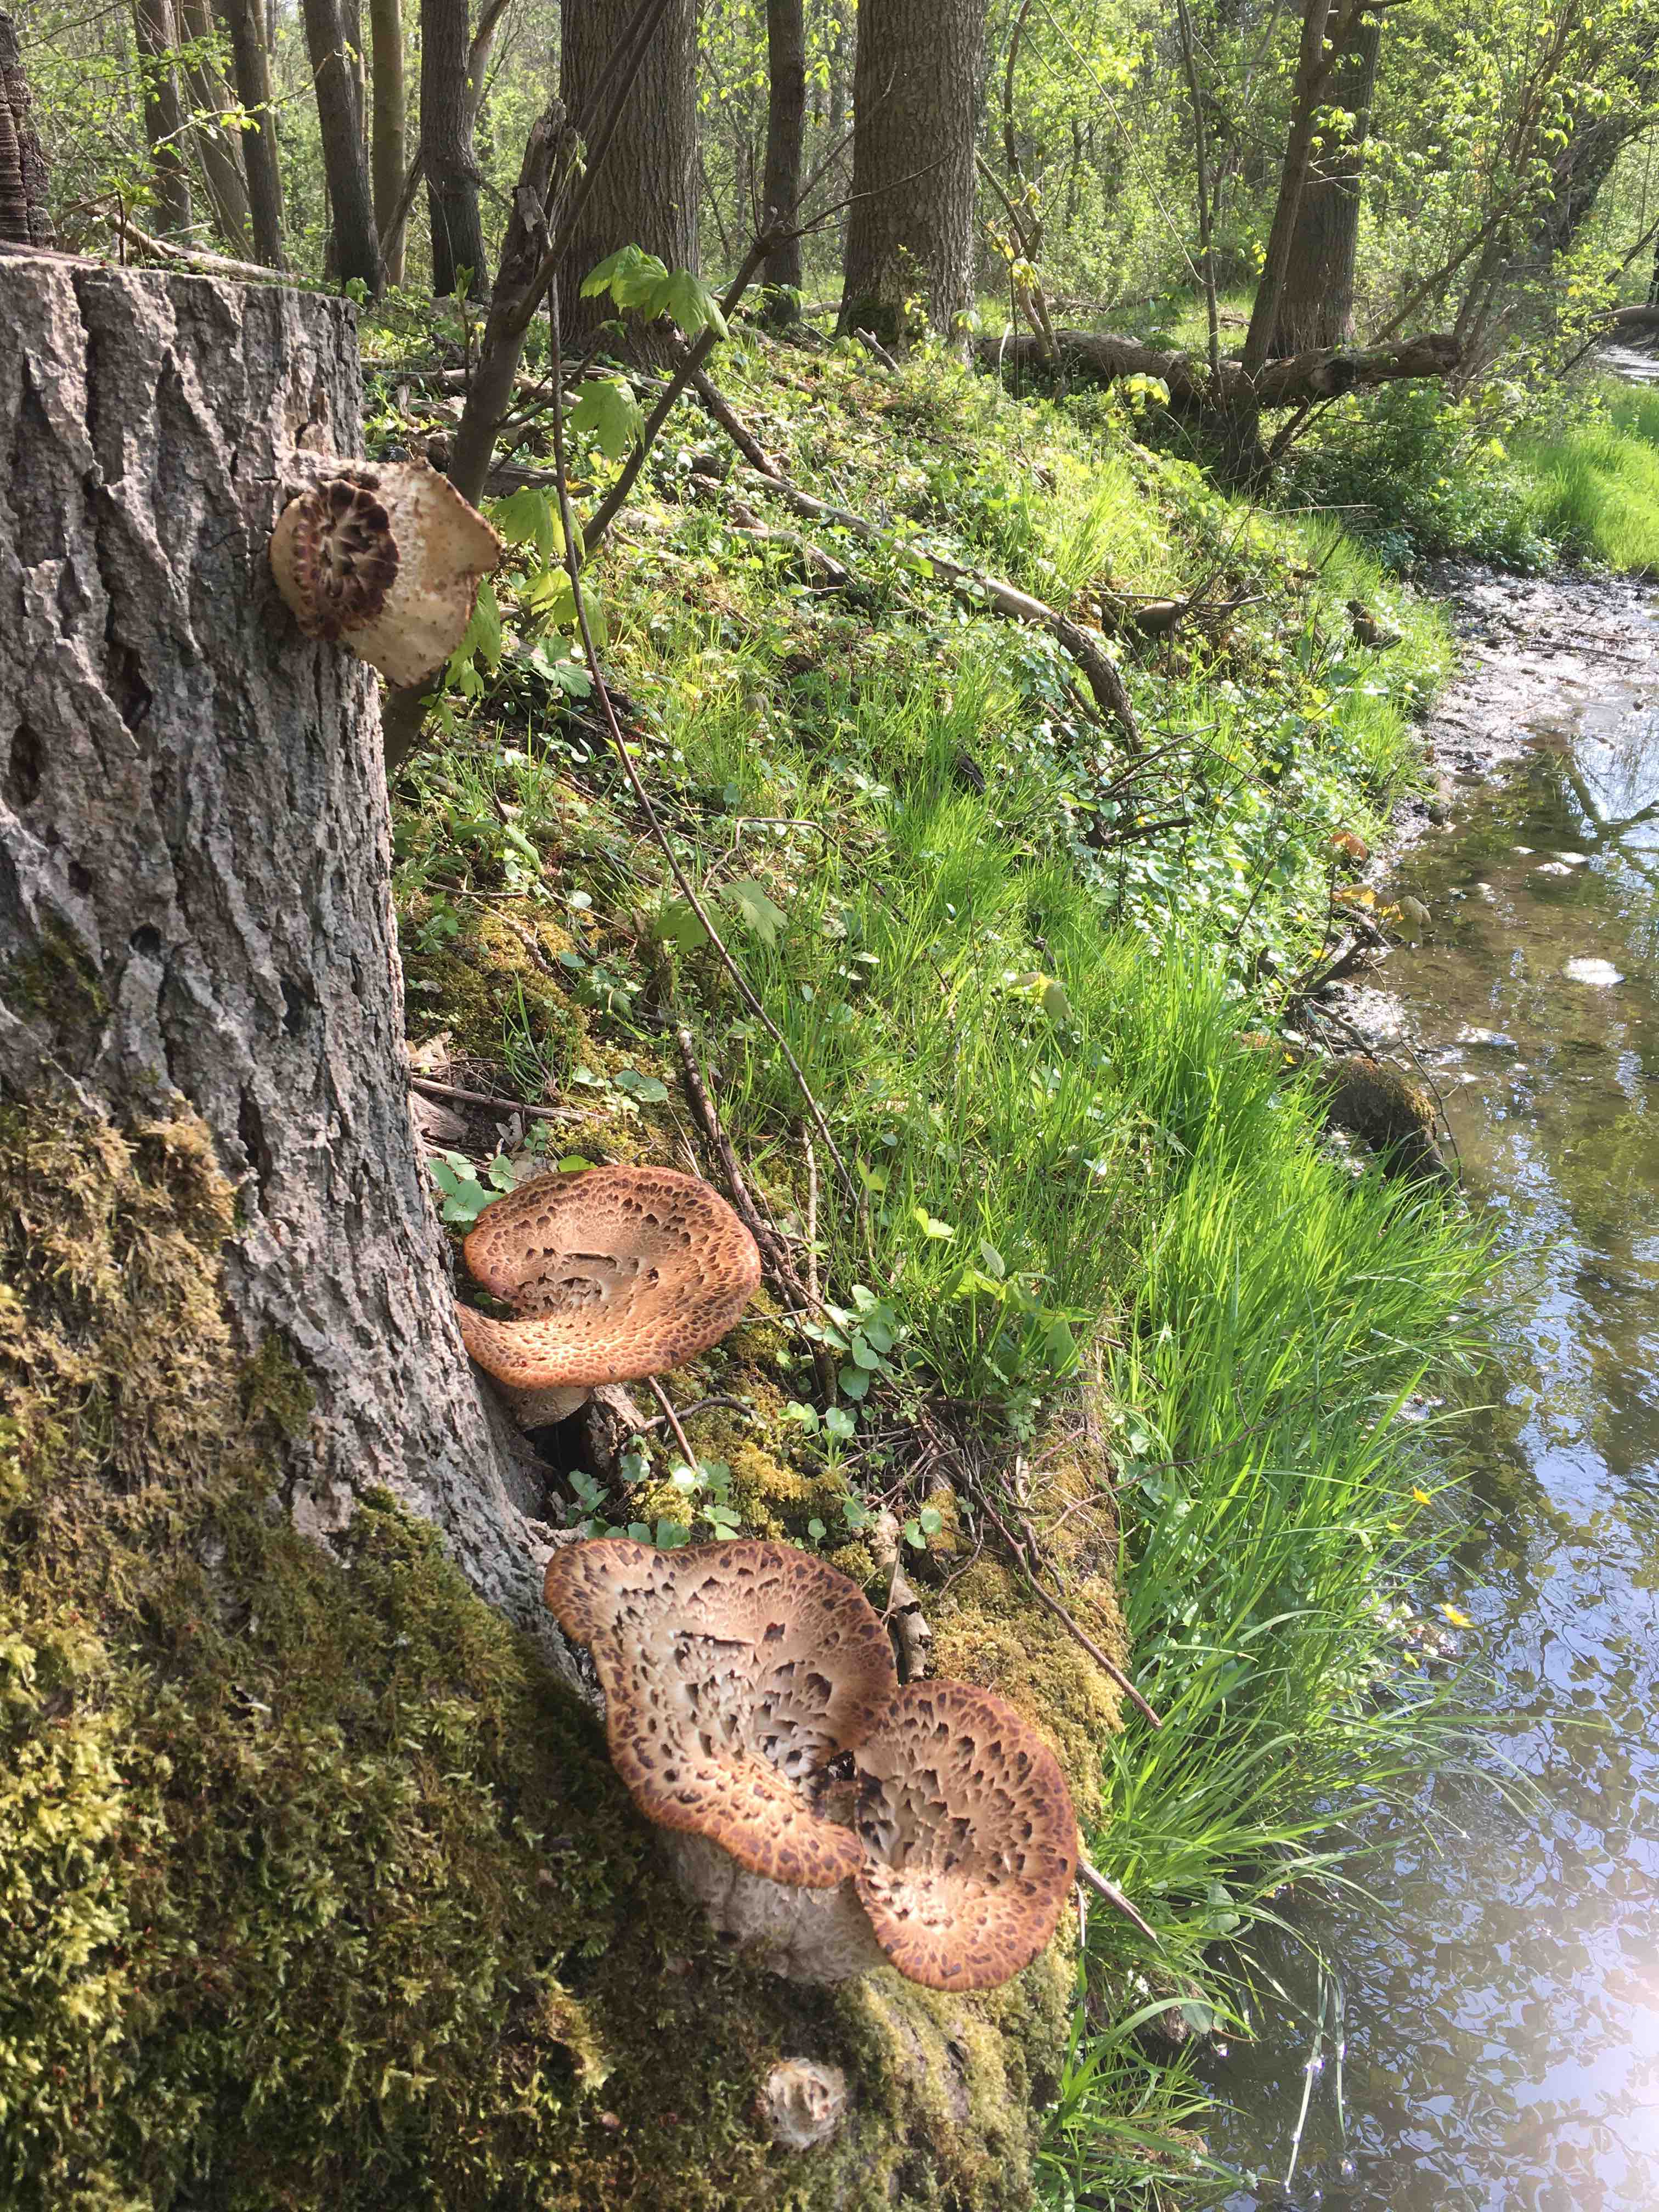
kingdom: Fungi
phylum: Basidiomycota
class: Agaricomycetes
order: Polyporales
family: Polyporaceae
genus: Cerioporus
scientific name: Cerioporus squamosus
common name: skællet stilkporesvamp
